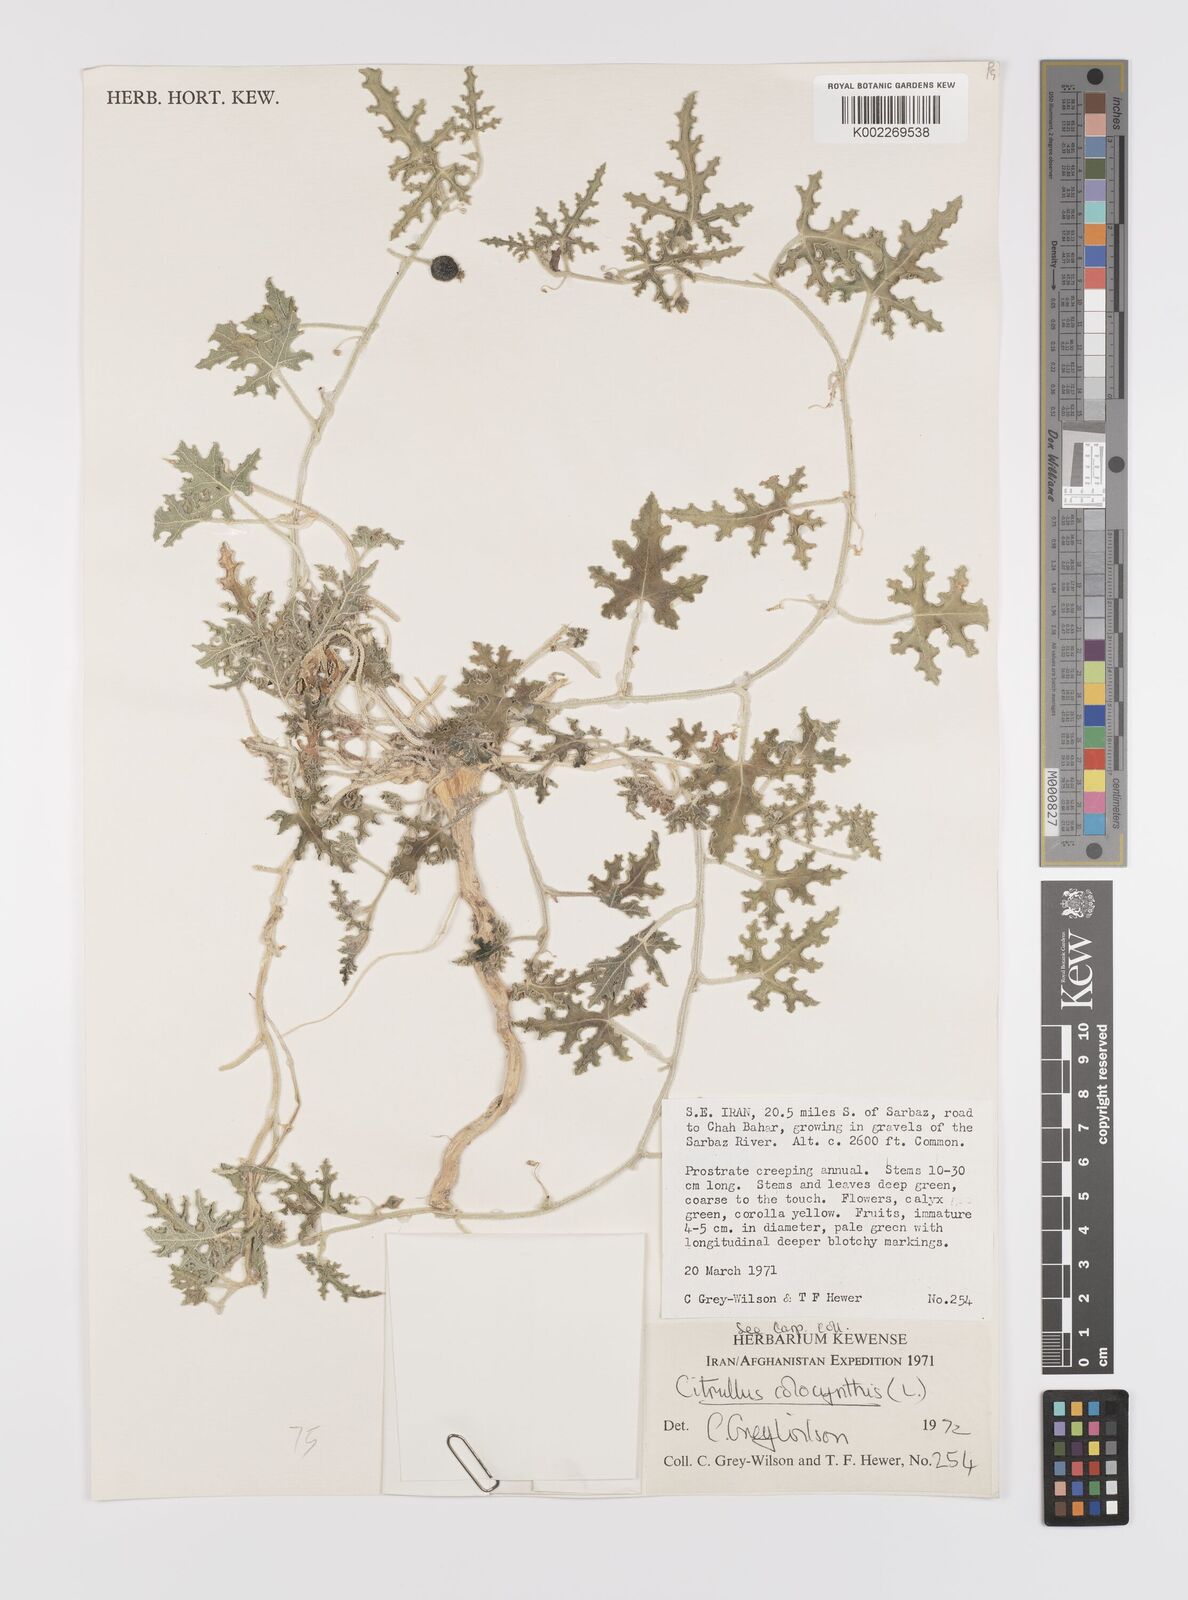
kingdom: Plantae
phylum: Tracheophyta
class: Magnoliopsida
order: Cucurbitales
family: Cucurbitaceae
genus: Citrullus
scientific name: Citrullus colocynthis
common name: Colocynth
